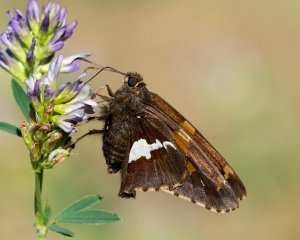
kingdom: Animalia
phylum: Arthropoda
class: Insecta
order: Lepidoptera
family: Hesperiidae
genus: Epargyreus
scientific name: Epargyreus clarus
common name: Silver-spotted Skipper
